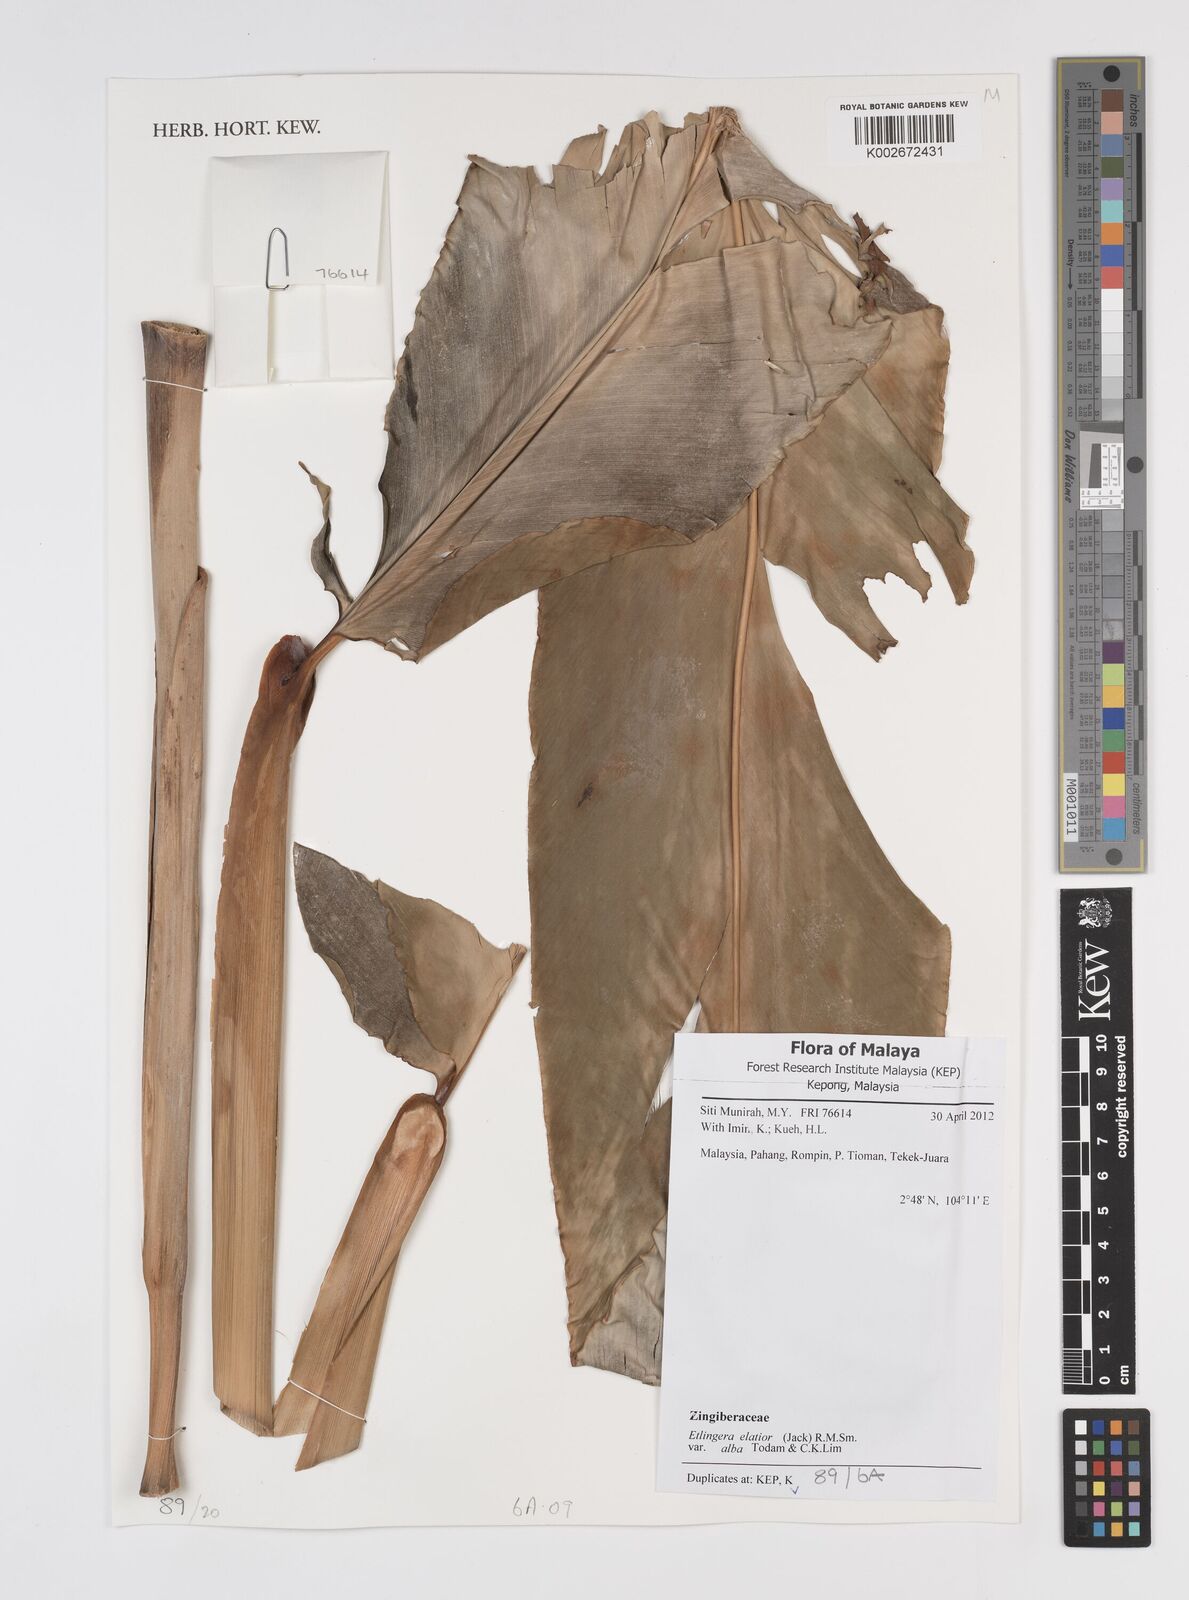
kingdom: Plantae
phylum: Tracheophyta
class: Liliopsida
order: Zingiberales
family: Zingiberaceae
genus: Etlingera
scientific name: Etlingera elatior
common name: Philippine waxflower
